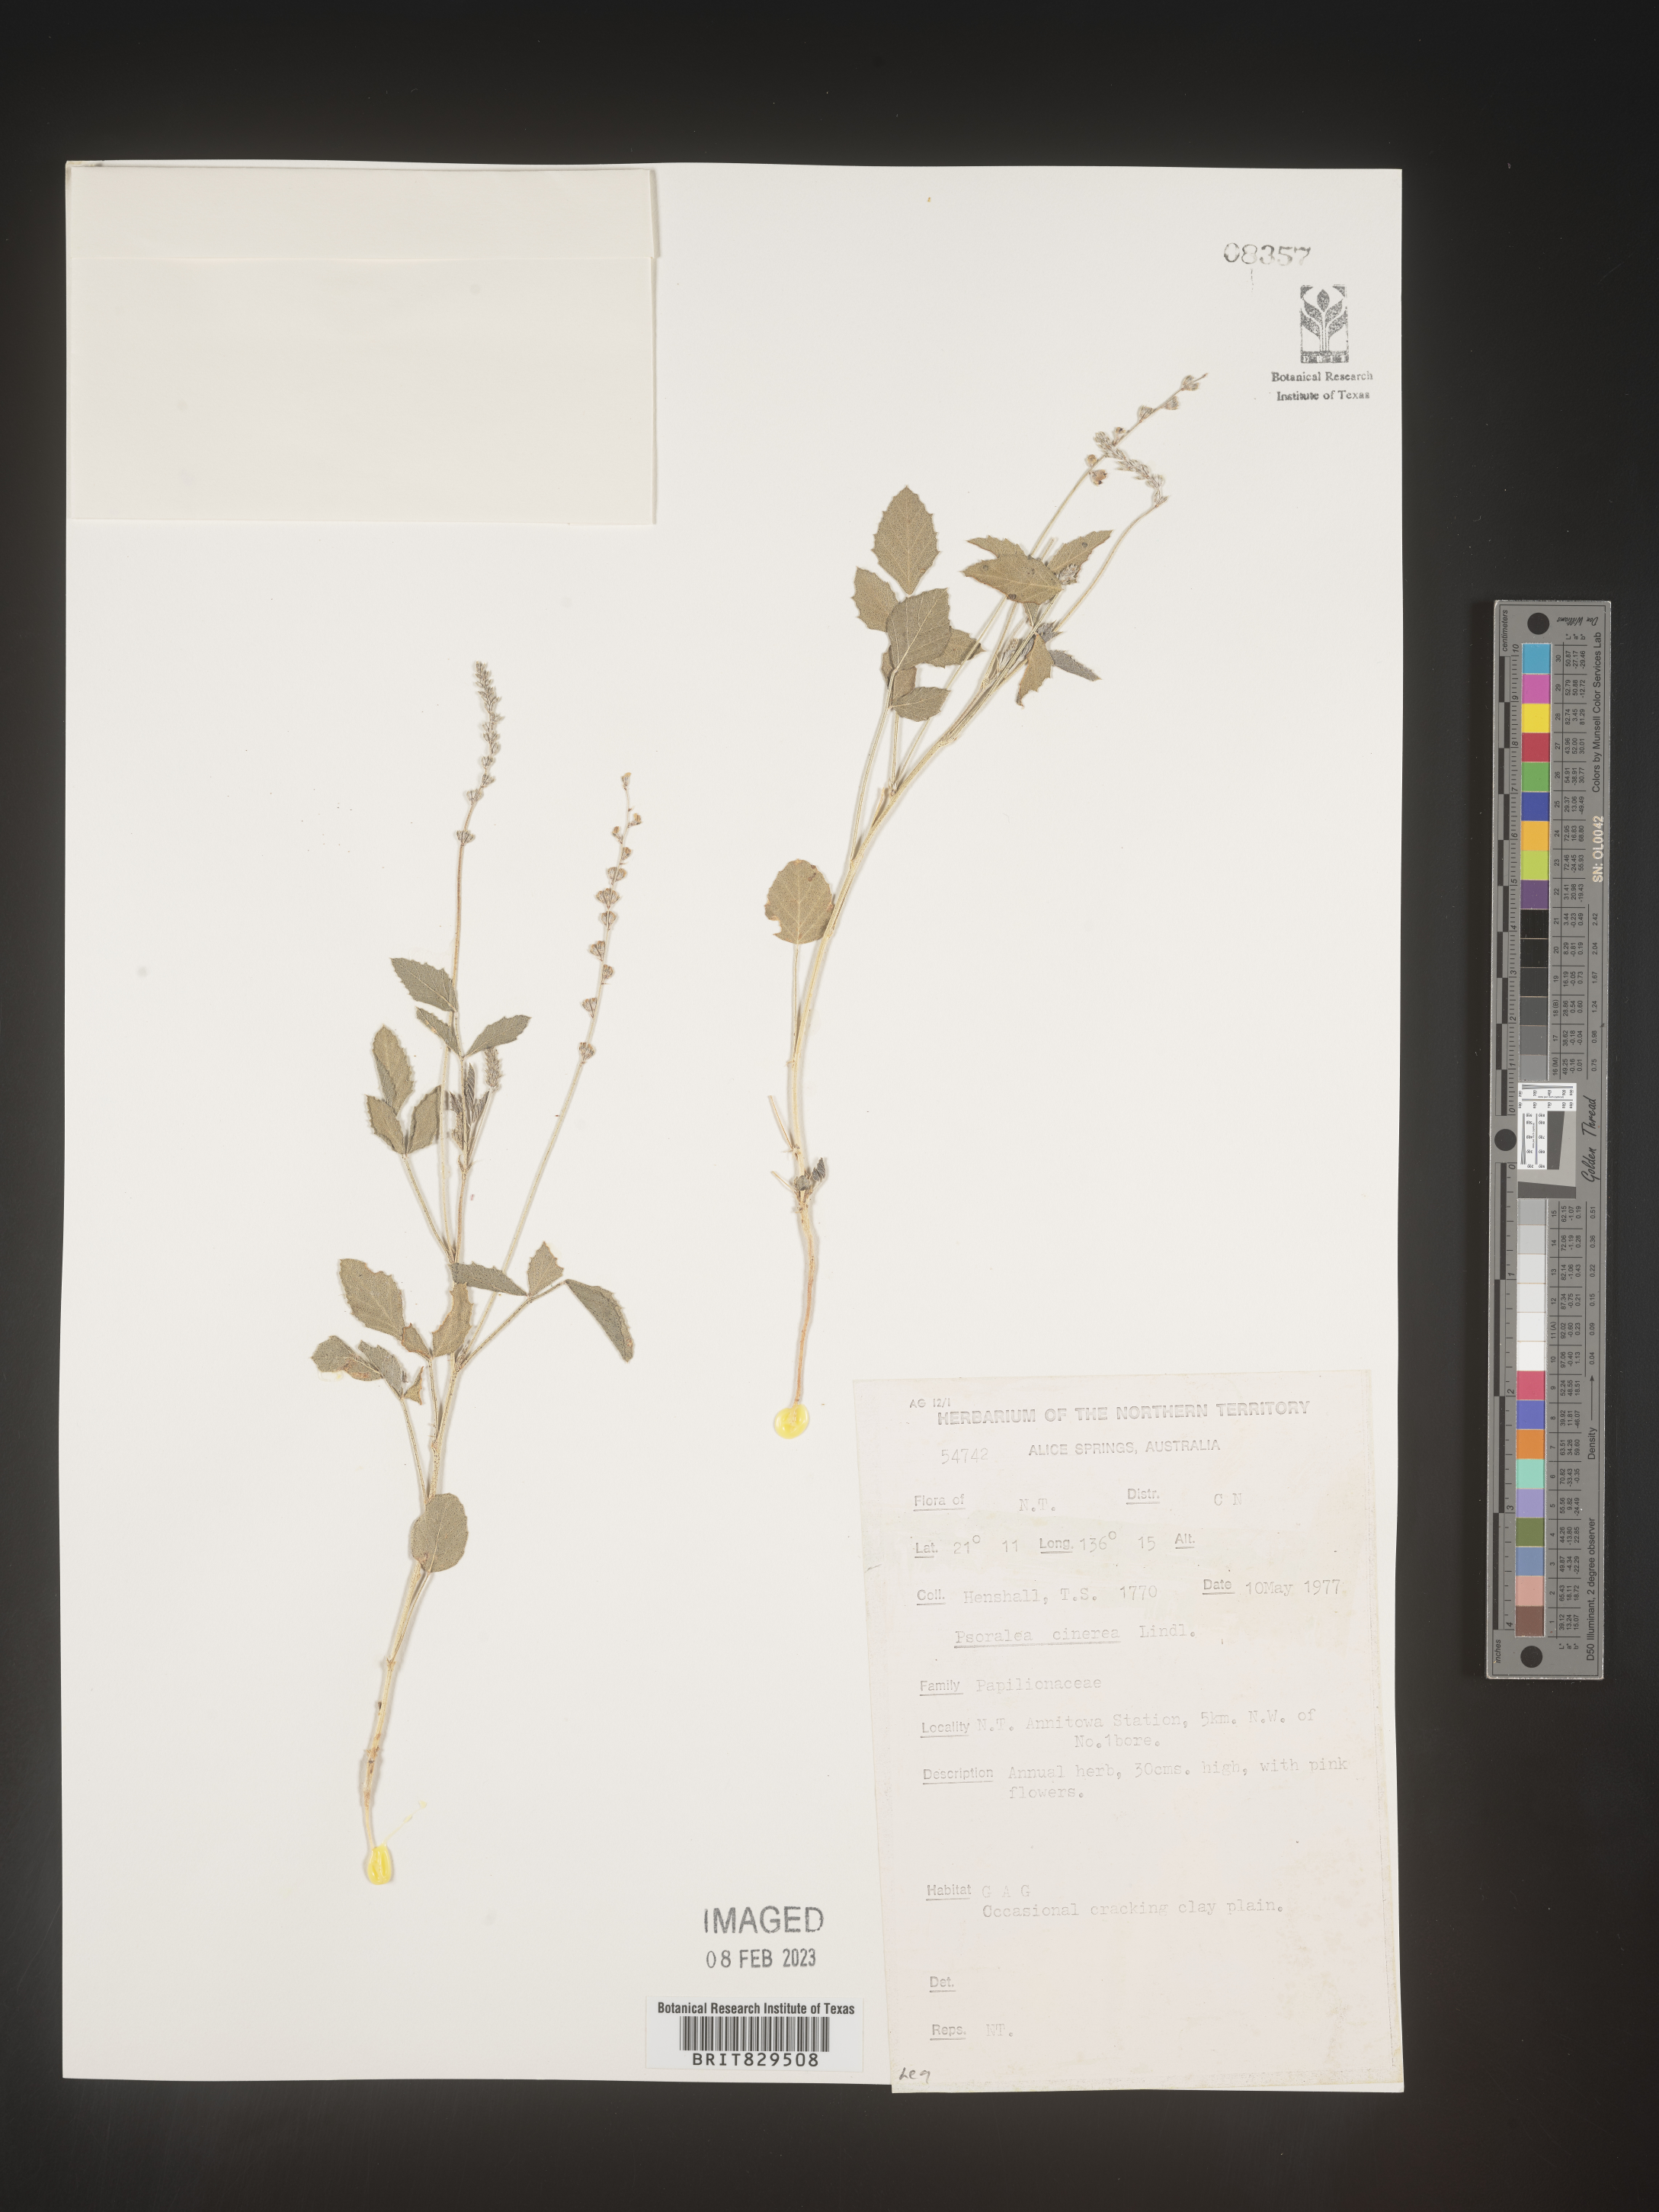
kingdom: Plantae
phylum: Tracheophyta
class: Magnoliopsida
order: Fabales
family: Fabaceae
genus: Psoralea
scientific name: Psoralea
